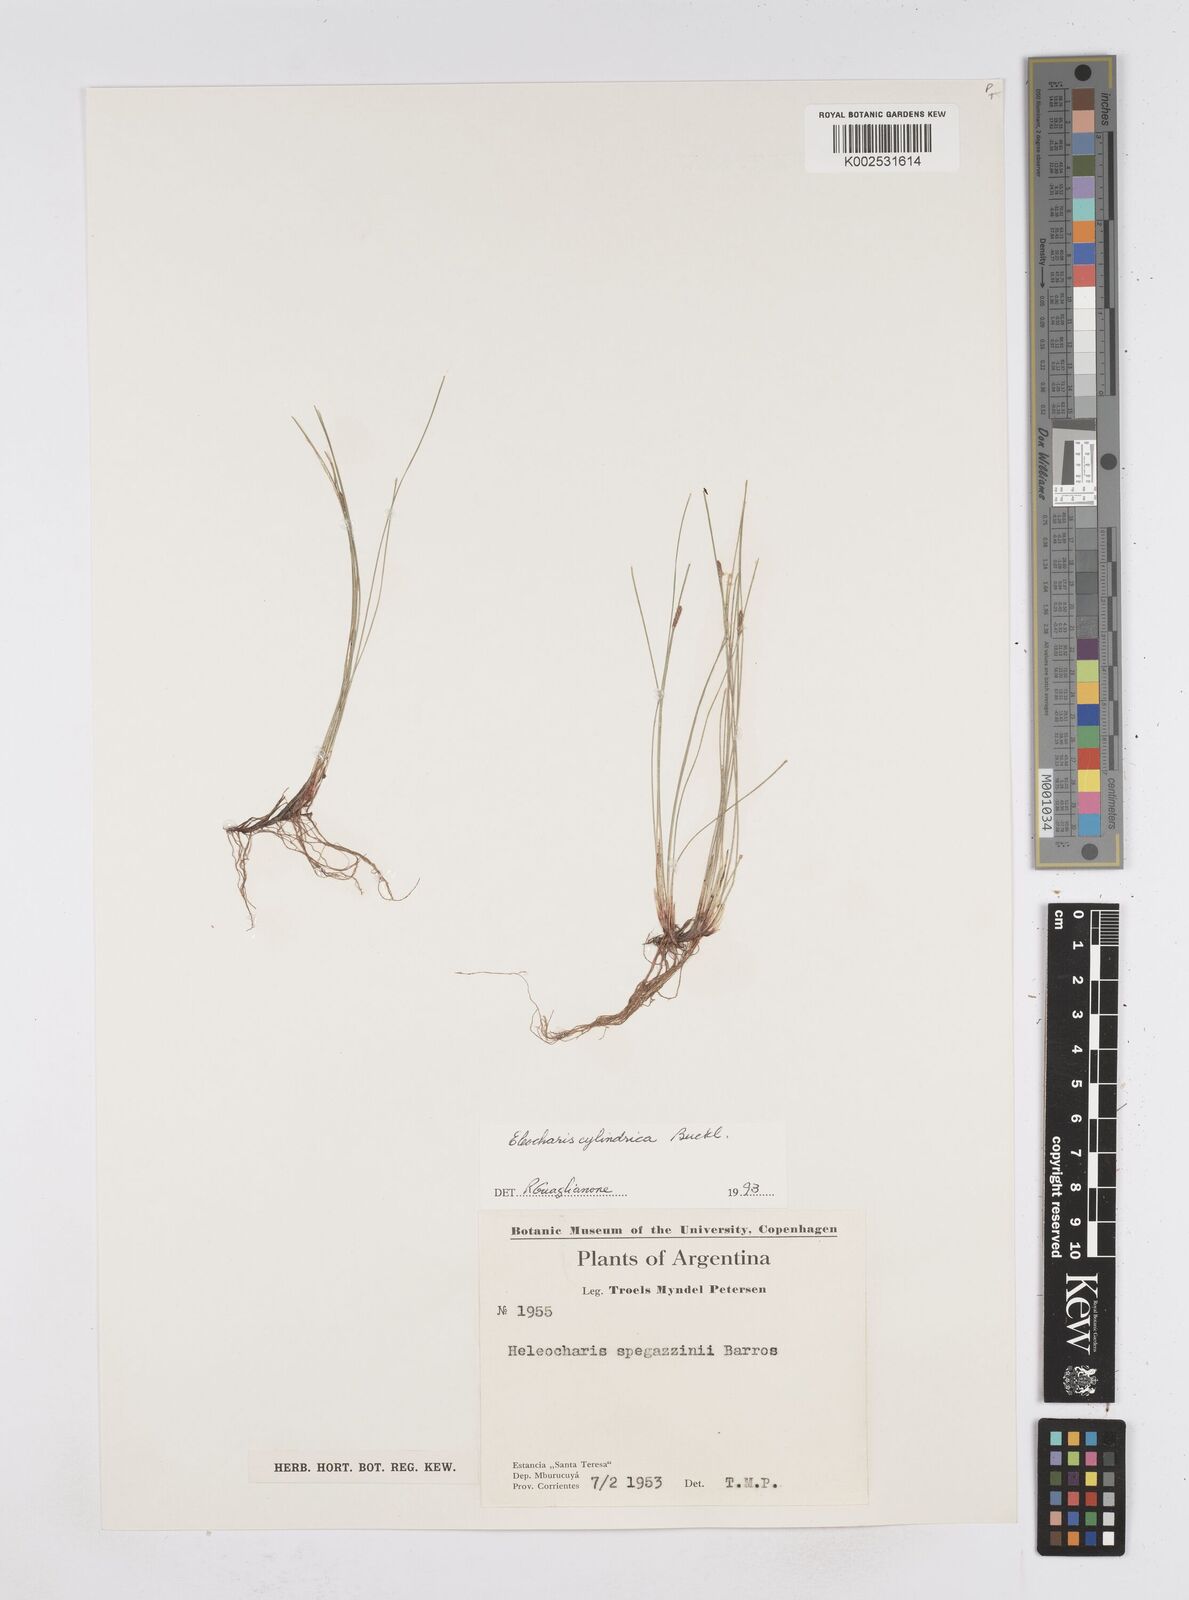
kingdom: Plantae
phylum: Tracheophyta
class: Liliopsida
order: Poales
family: Cyperaceae
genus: Eleocharis
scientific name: Eleocharis cylindrica
